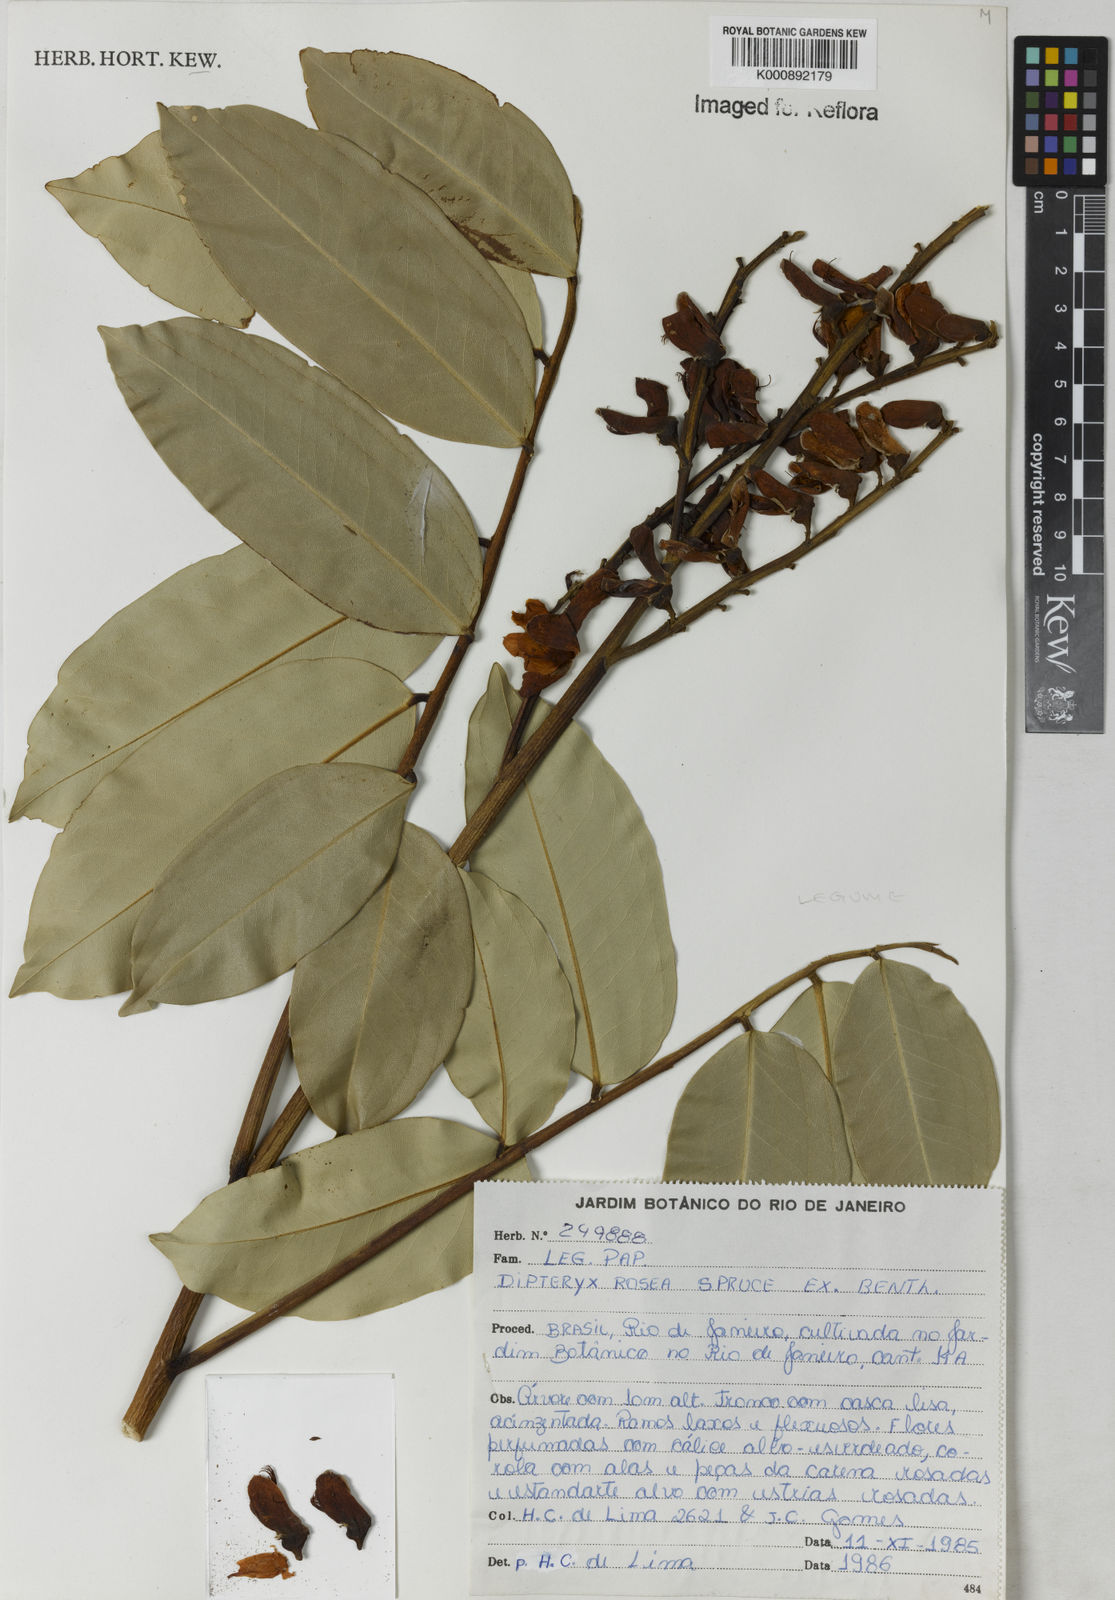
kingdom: Plantae
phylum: Tracheophyta
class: Magnoliopsida
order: Fabales
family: Fabaceae
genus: Dipteryx
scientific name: Dipteryx rosea
